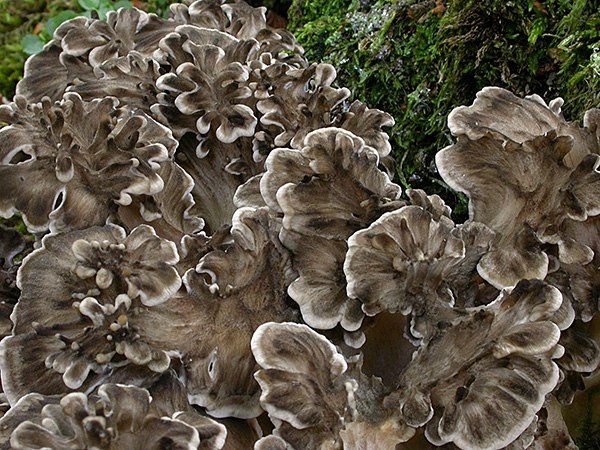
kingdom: Fungi
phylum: Basidiomycota
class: Agaricomycetes
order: Polyporales
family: Grifolaceae
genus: Grifola
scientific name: Grifola frondosa
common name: tueporesvamp
